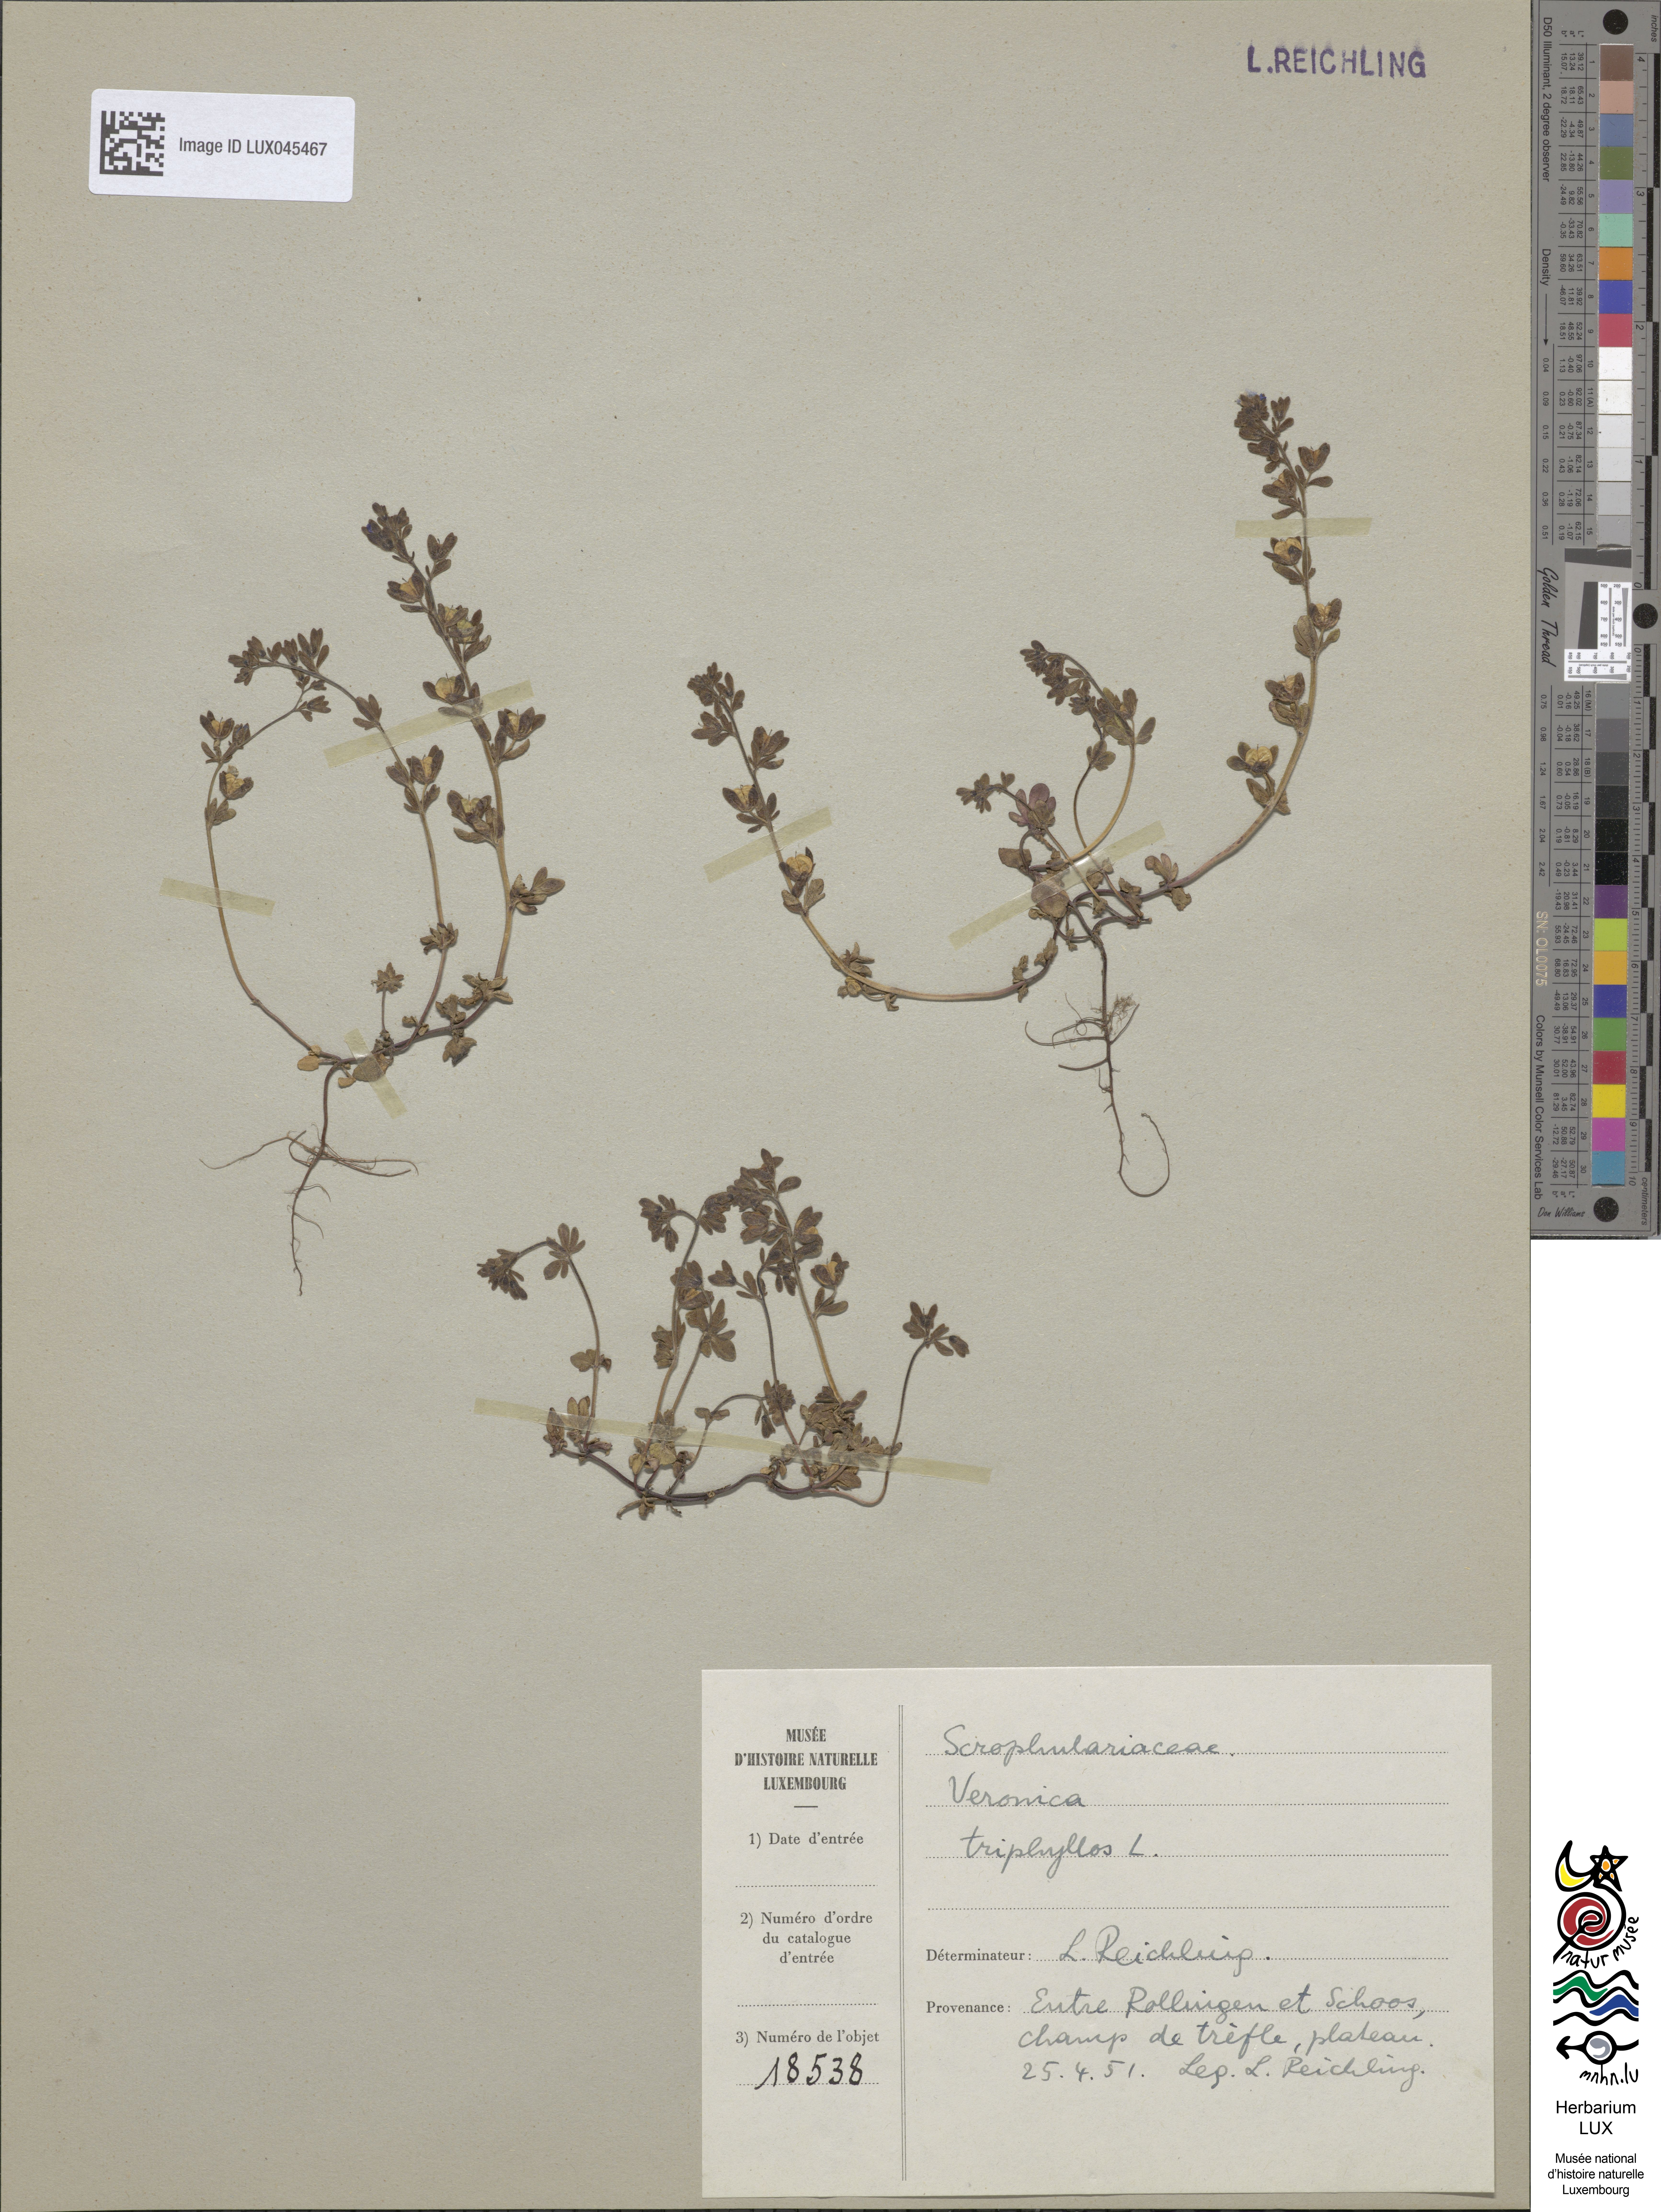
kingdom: Plantae
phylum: Tracheophyta
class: Magnoliopsida
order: Lamiales
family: Plantaginaceae
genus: Veronica
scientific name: Veronica triphyllos
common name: Fingered speedwell
